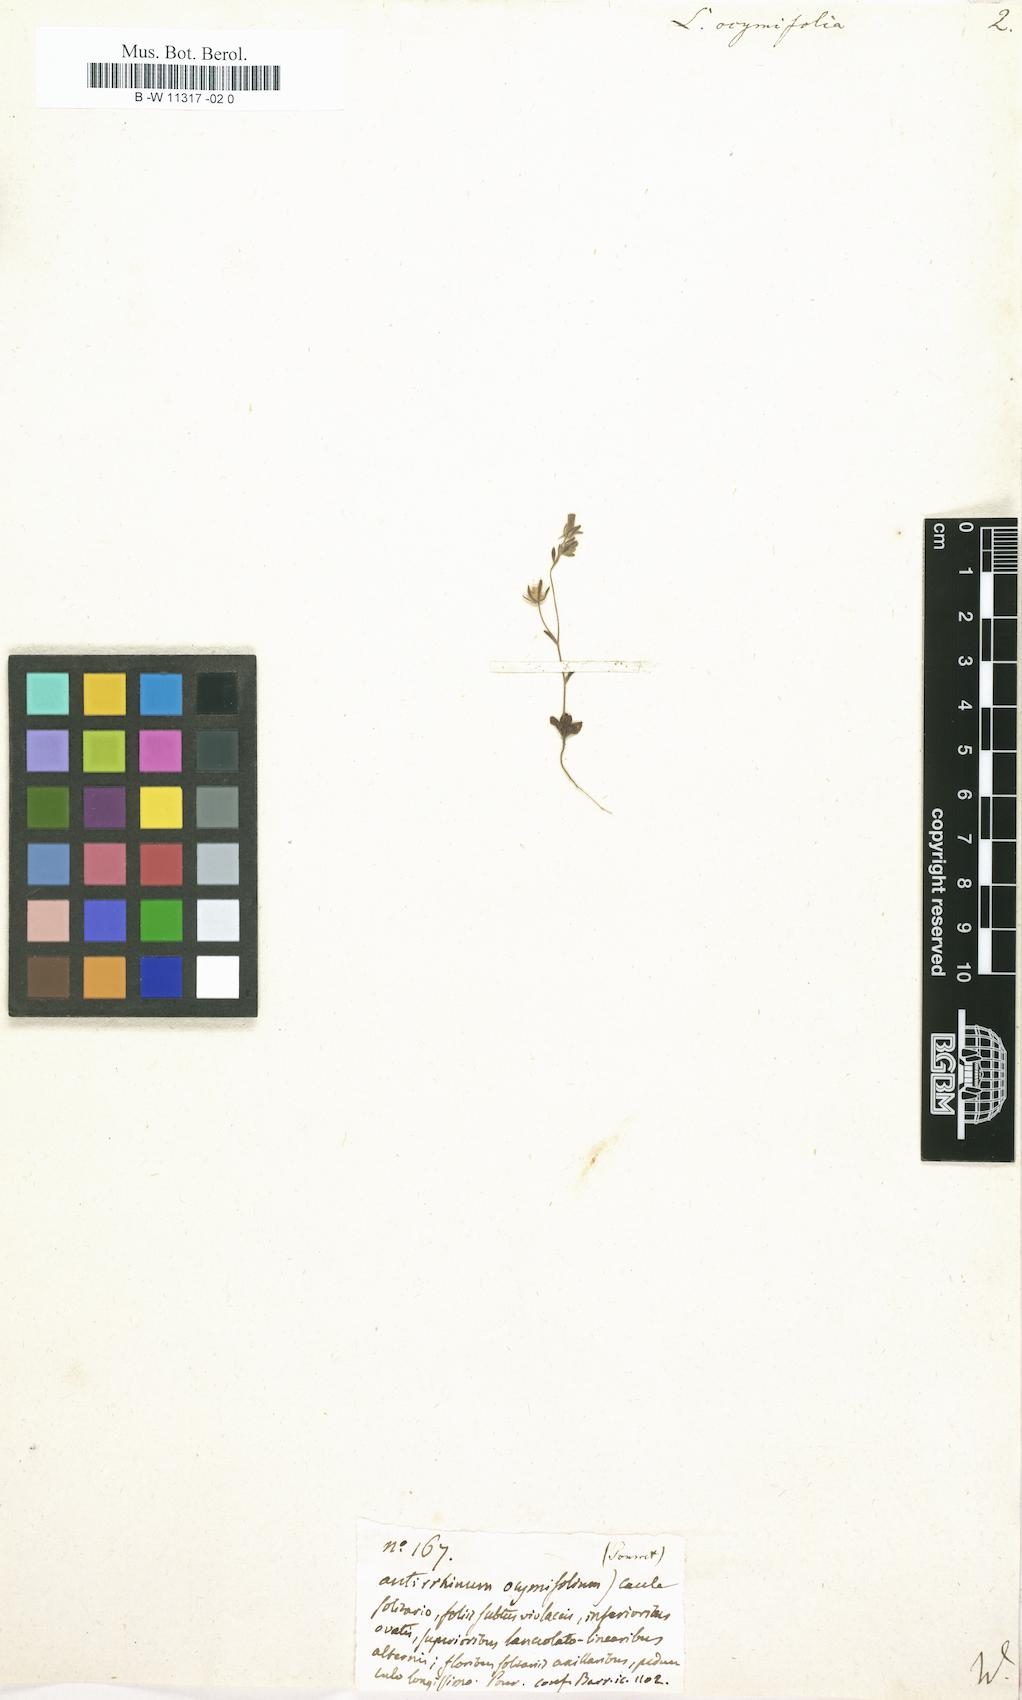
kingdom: Plantae
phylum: Tracheophyta
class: Magnoliopsida
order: Lamiales
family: Plantaginaceae
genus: Linaria
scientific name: Linaria ocimifolia
